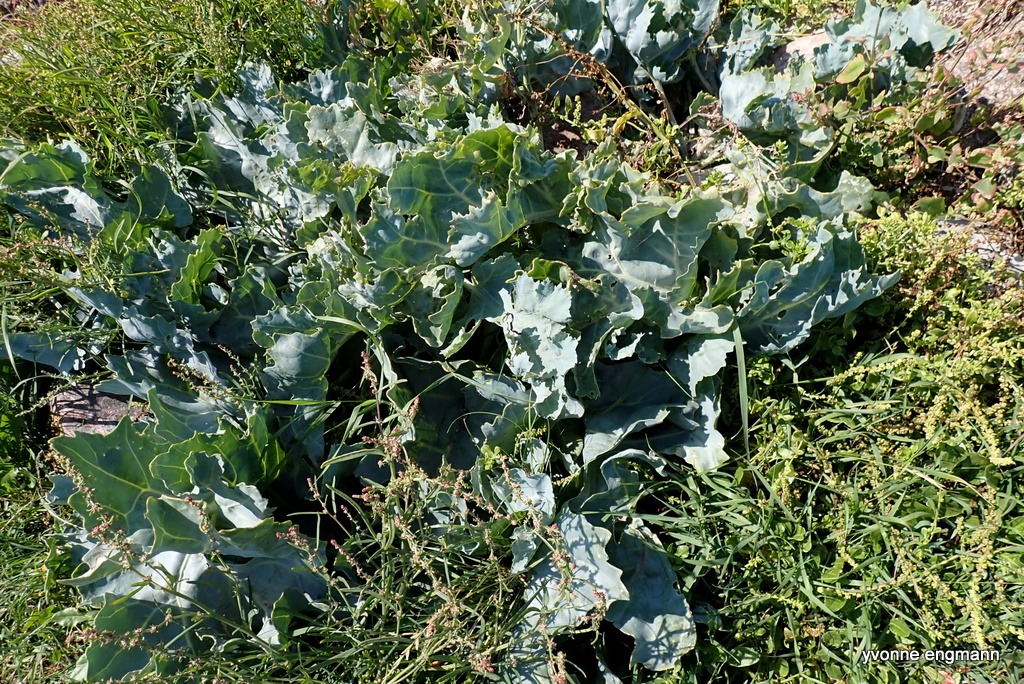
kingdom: Plantae
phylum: Tracheophyta
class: Magnoliopsida
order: Brassicales
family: Brassicaceae
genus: Crambe
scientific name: Crambe maritima
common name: Strandkål
